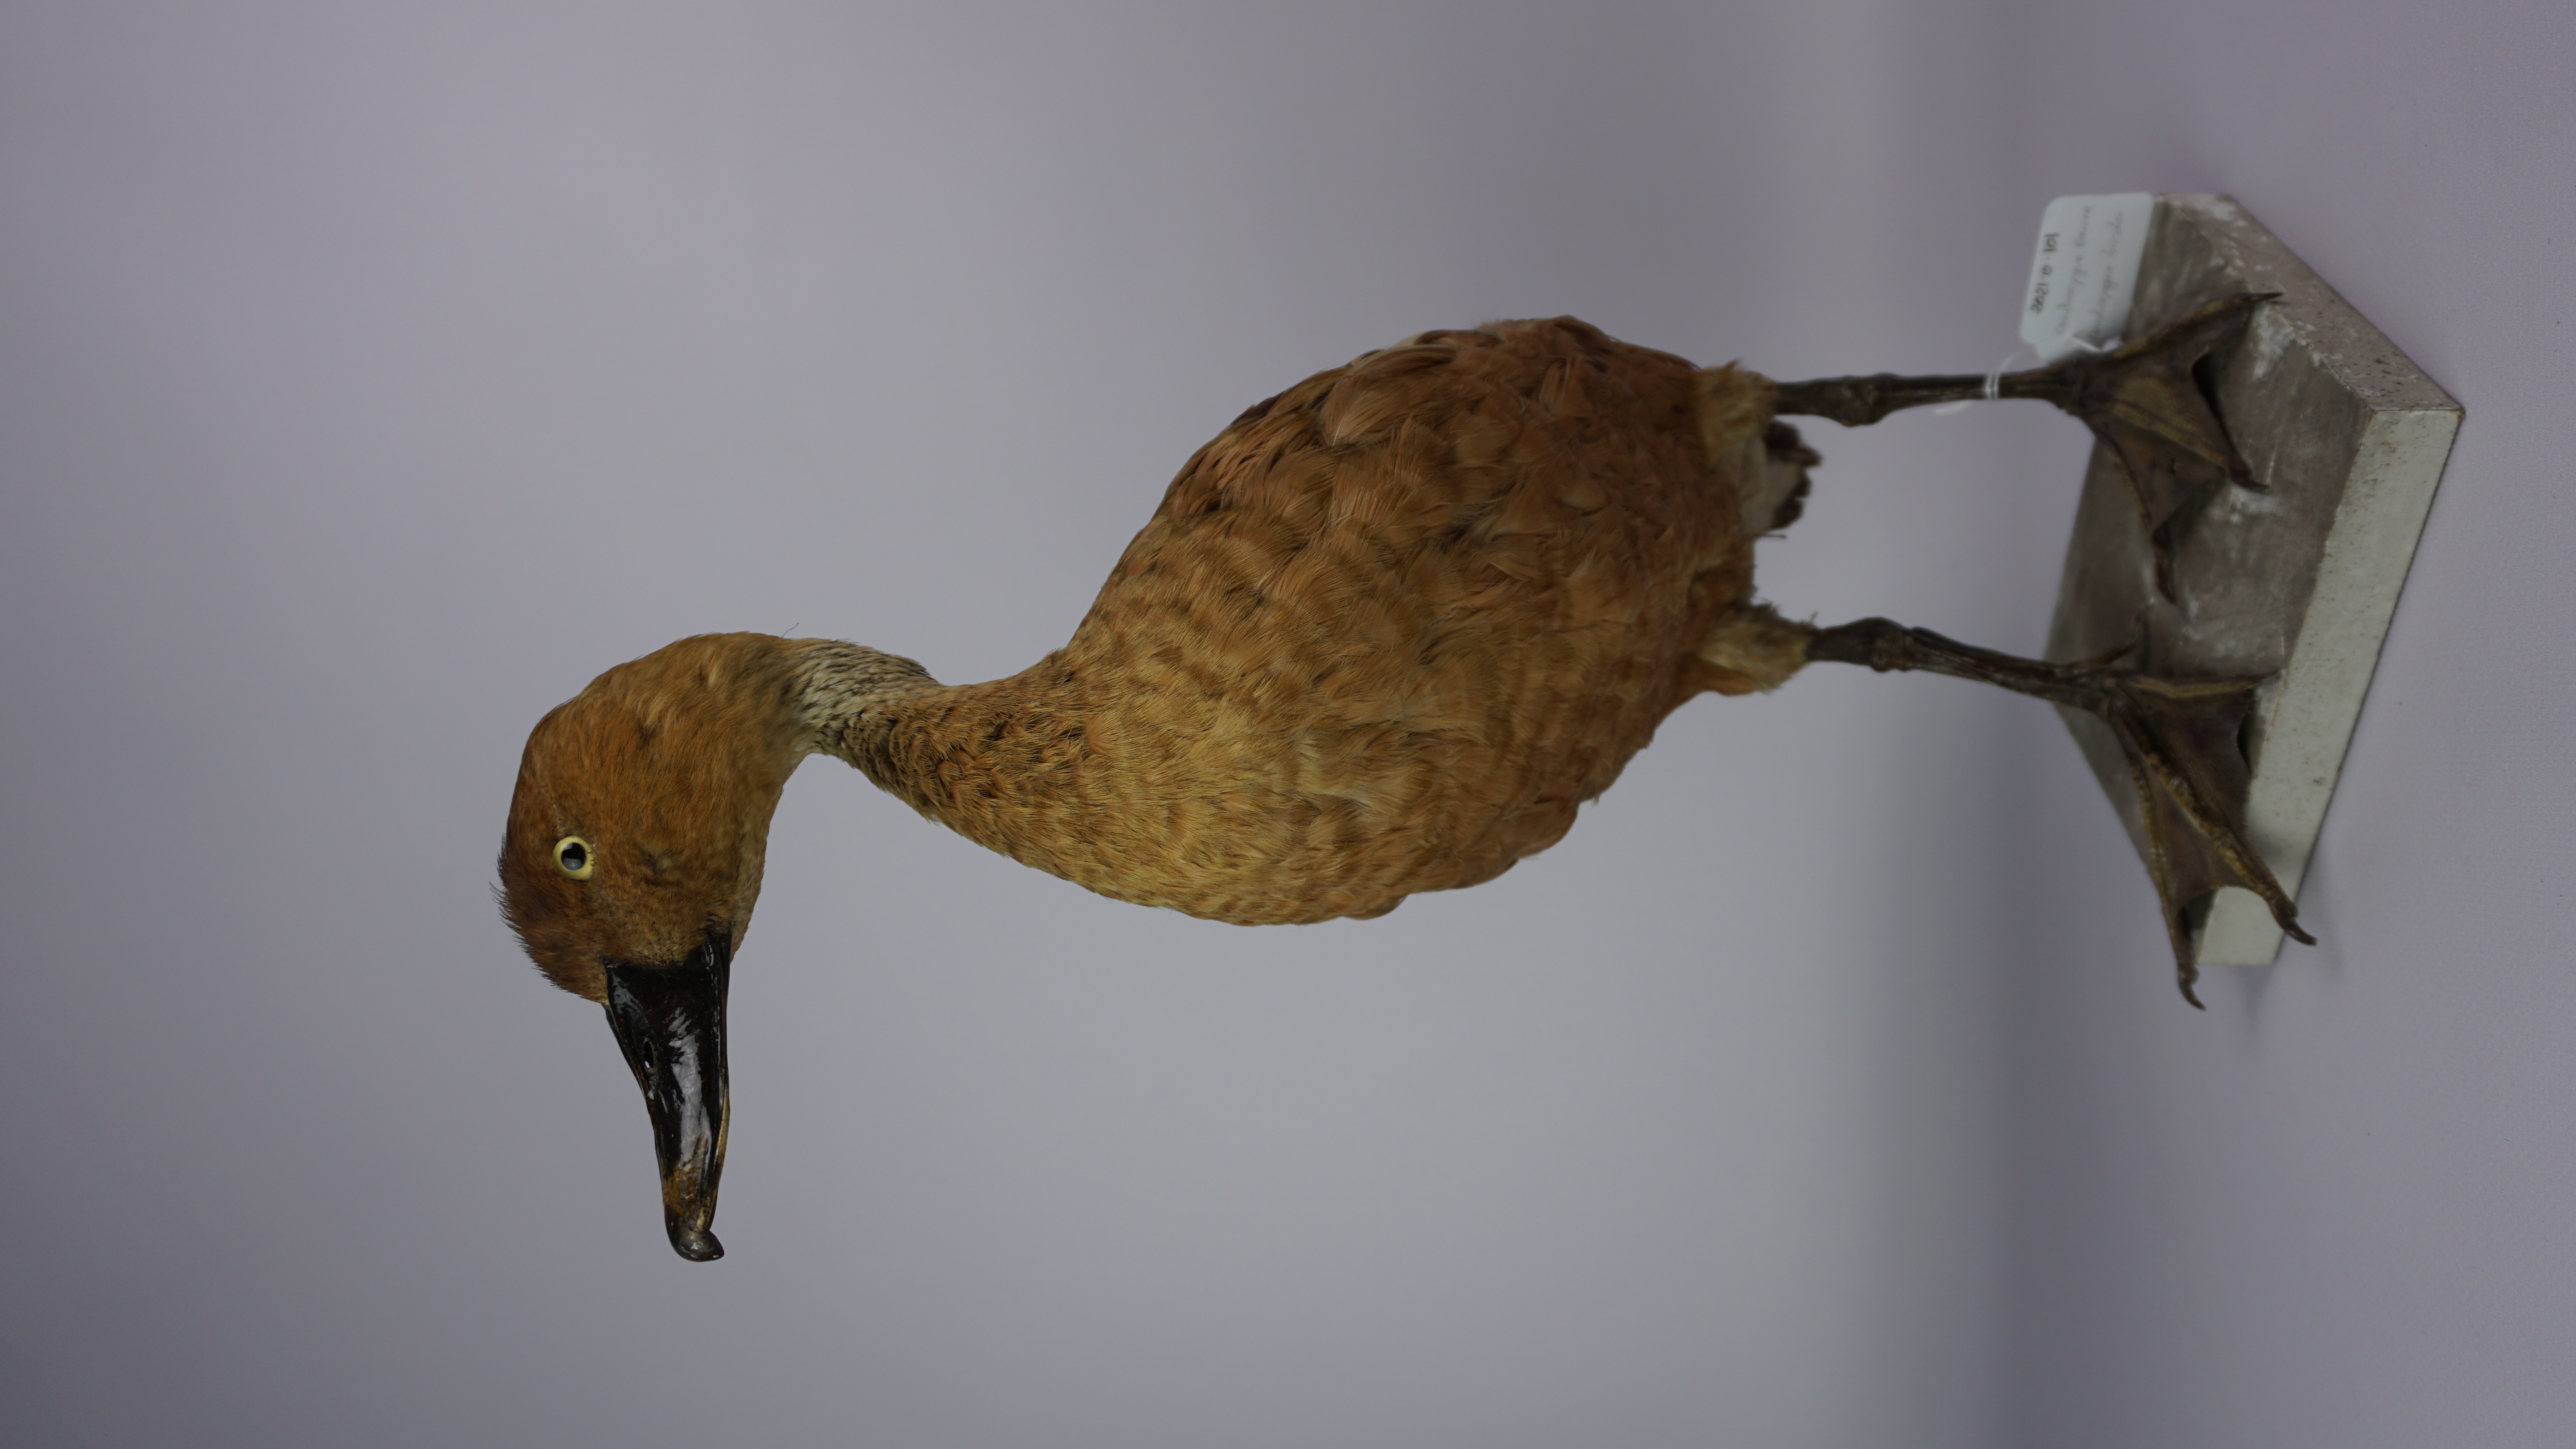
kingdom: Animalia
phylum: Chordata
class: Aves
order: Anseriformes
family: Anatidae
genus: Dendrocygna
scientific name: Dendrocygna bicolor
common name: Fulvous whistling duck
